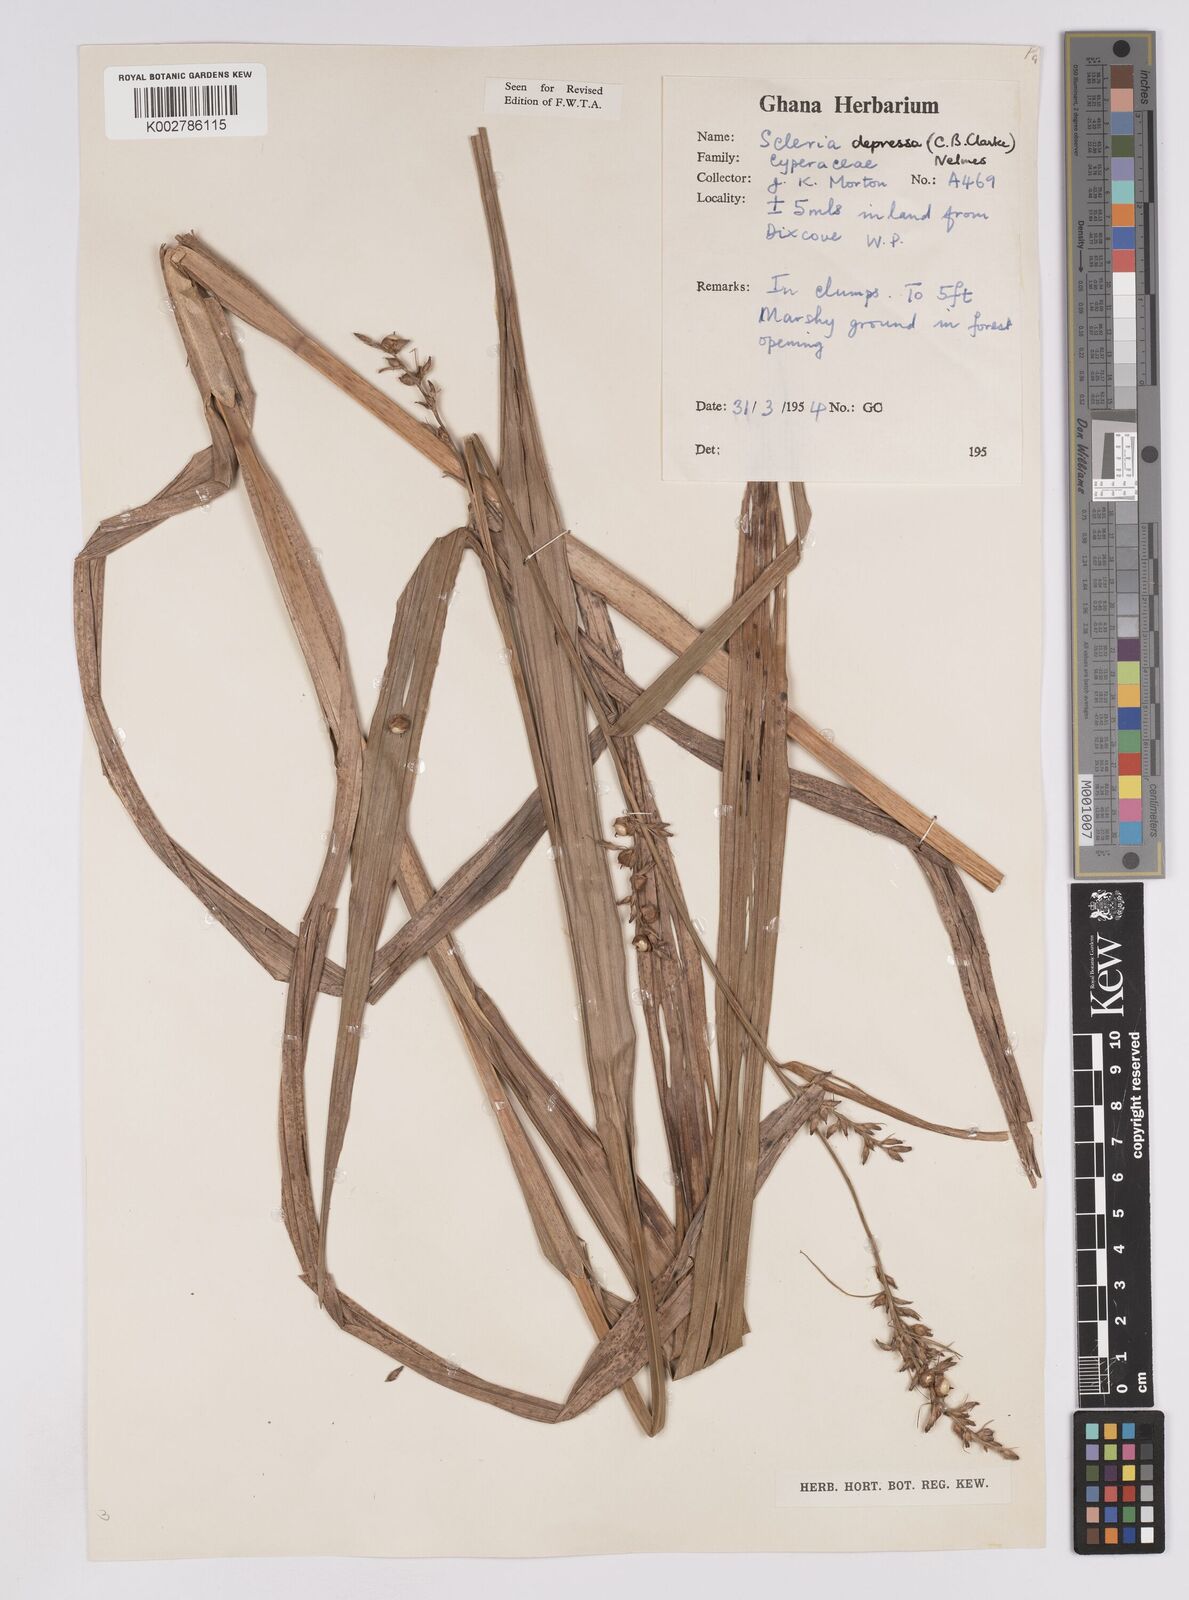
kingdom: Plantae
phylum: Tracheophyta
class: Liliopsida
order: Poales
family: Cyperaceae
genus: Scleria
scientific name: Scleria depressa
